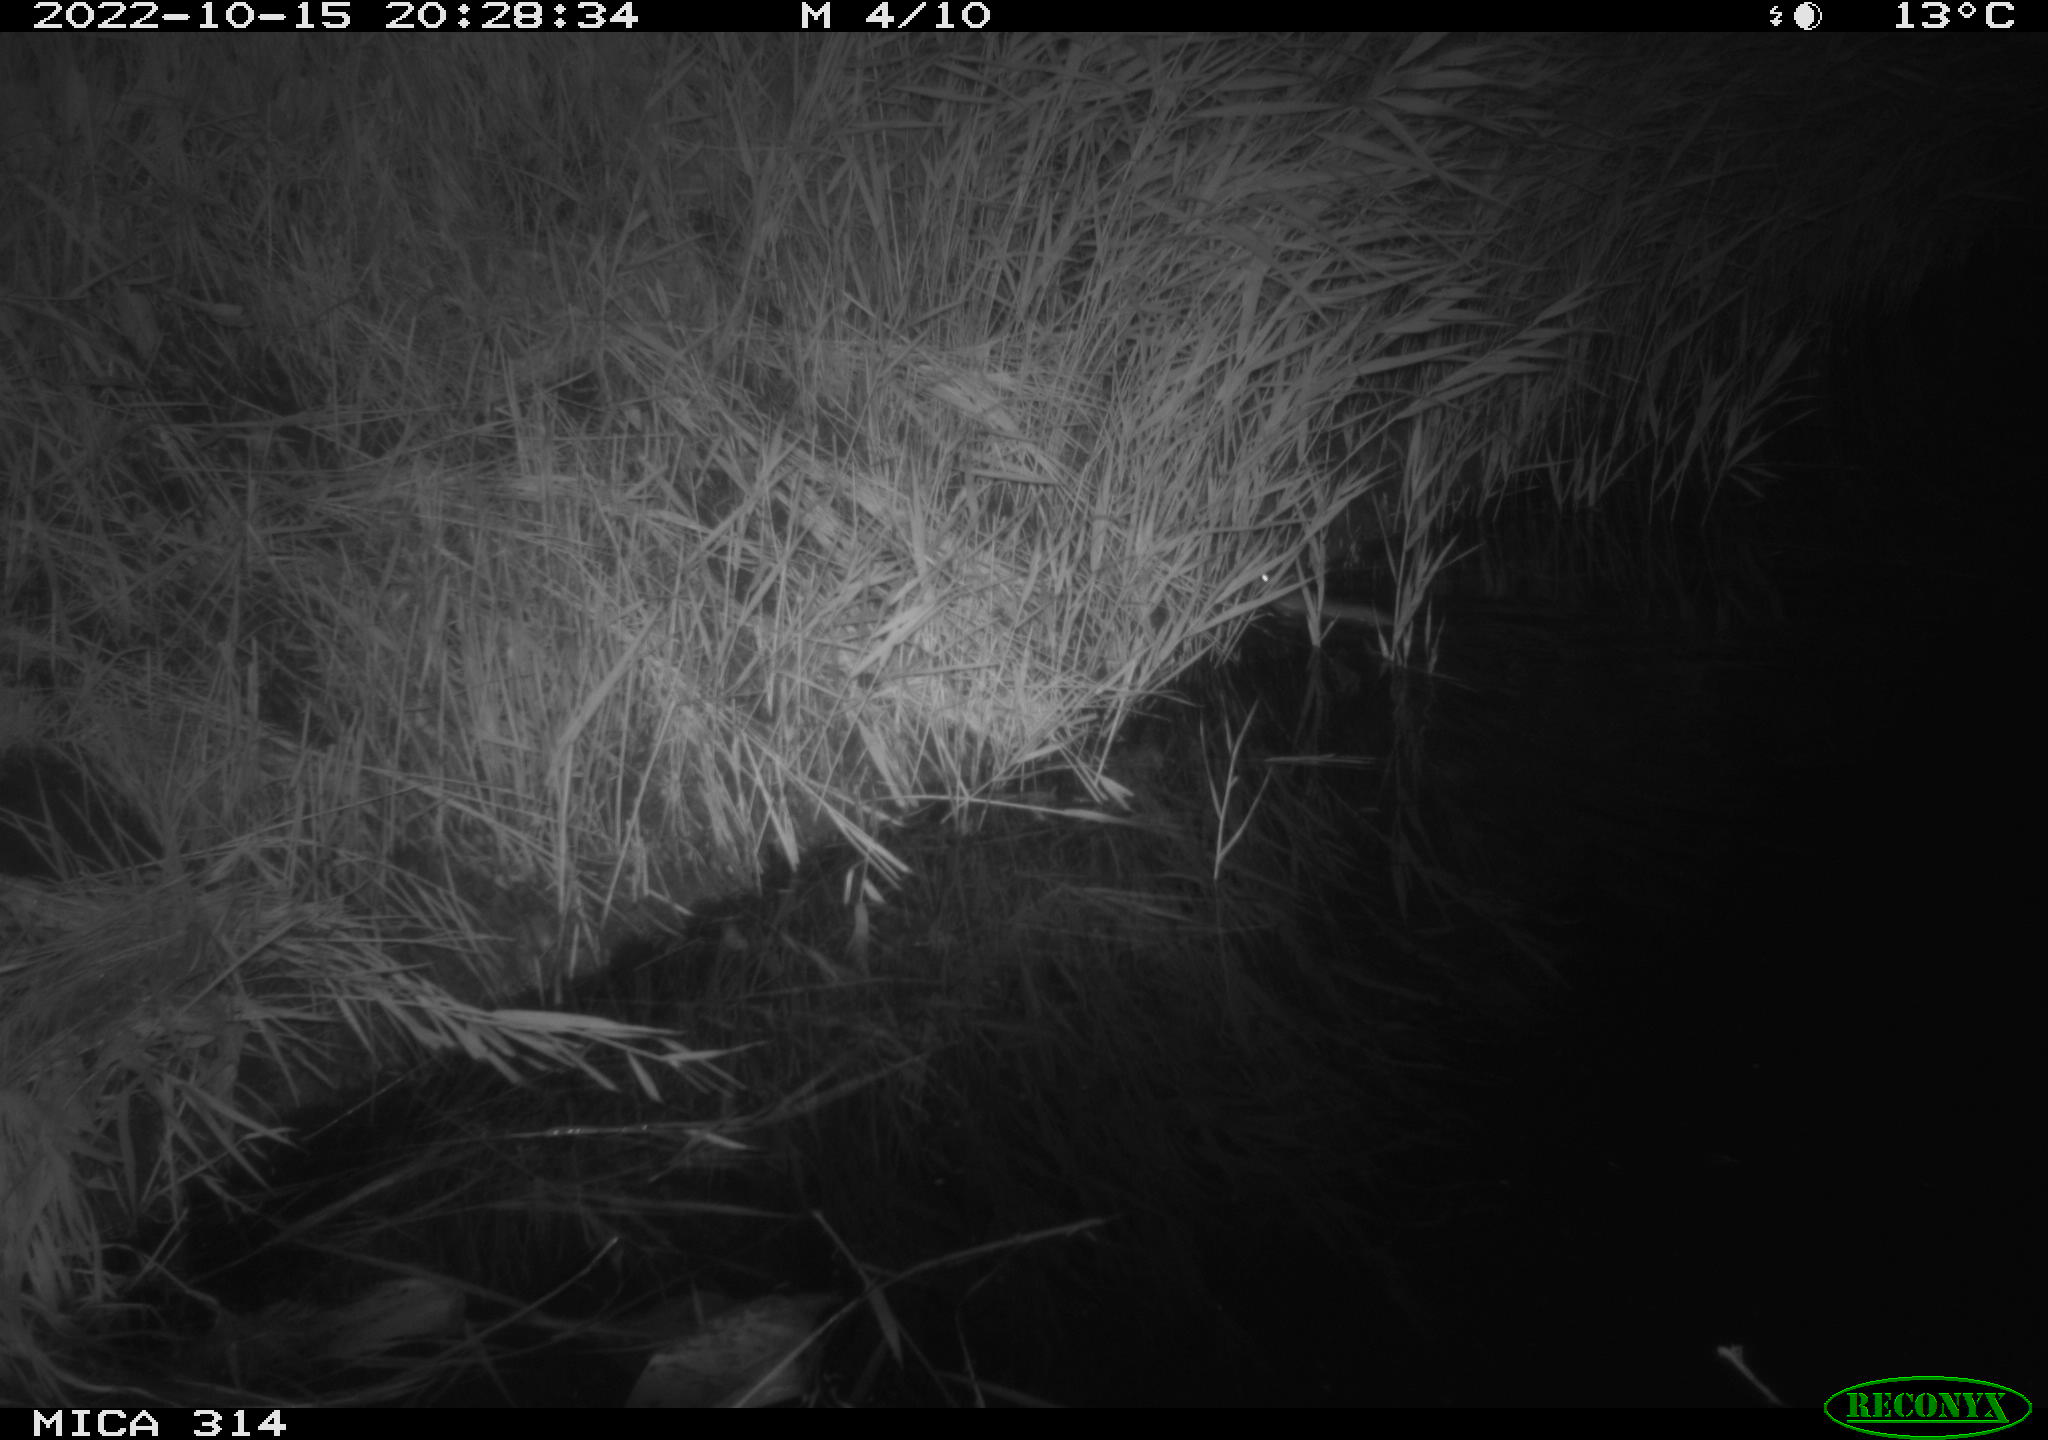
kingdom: Animalia
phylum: Chordata
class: Mammalia
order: Rodentia
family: Muridae
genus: Rattus
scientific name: Rattus norvegicus
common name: Brown rat
